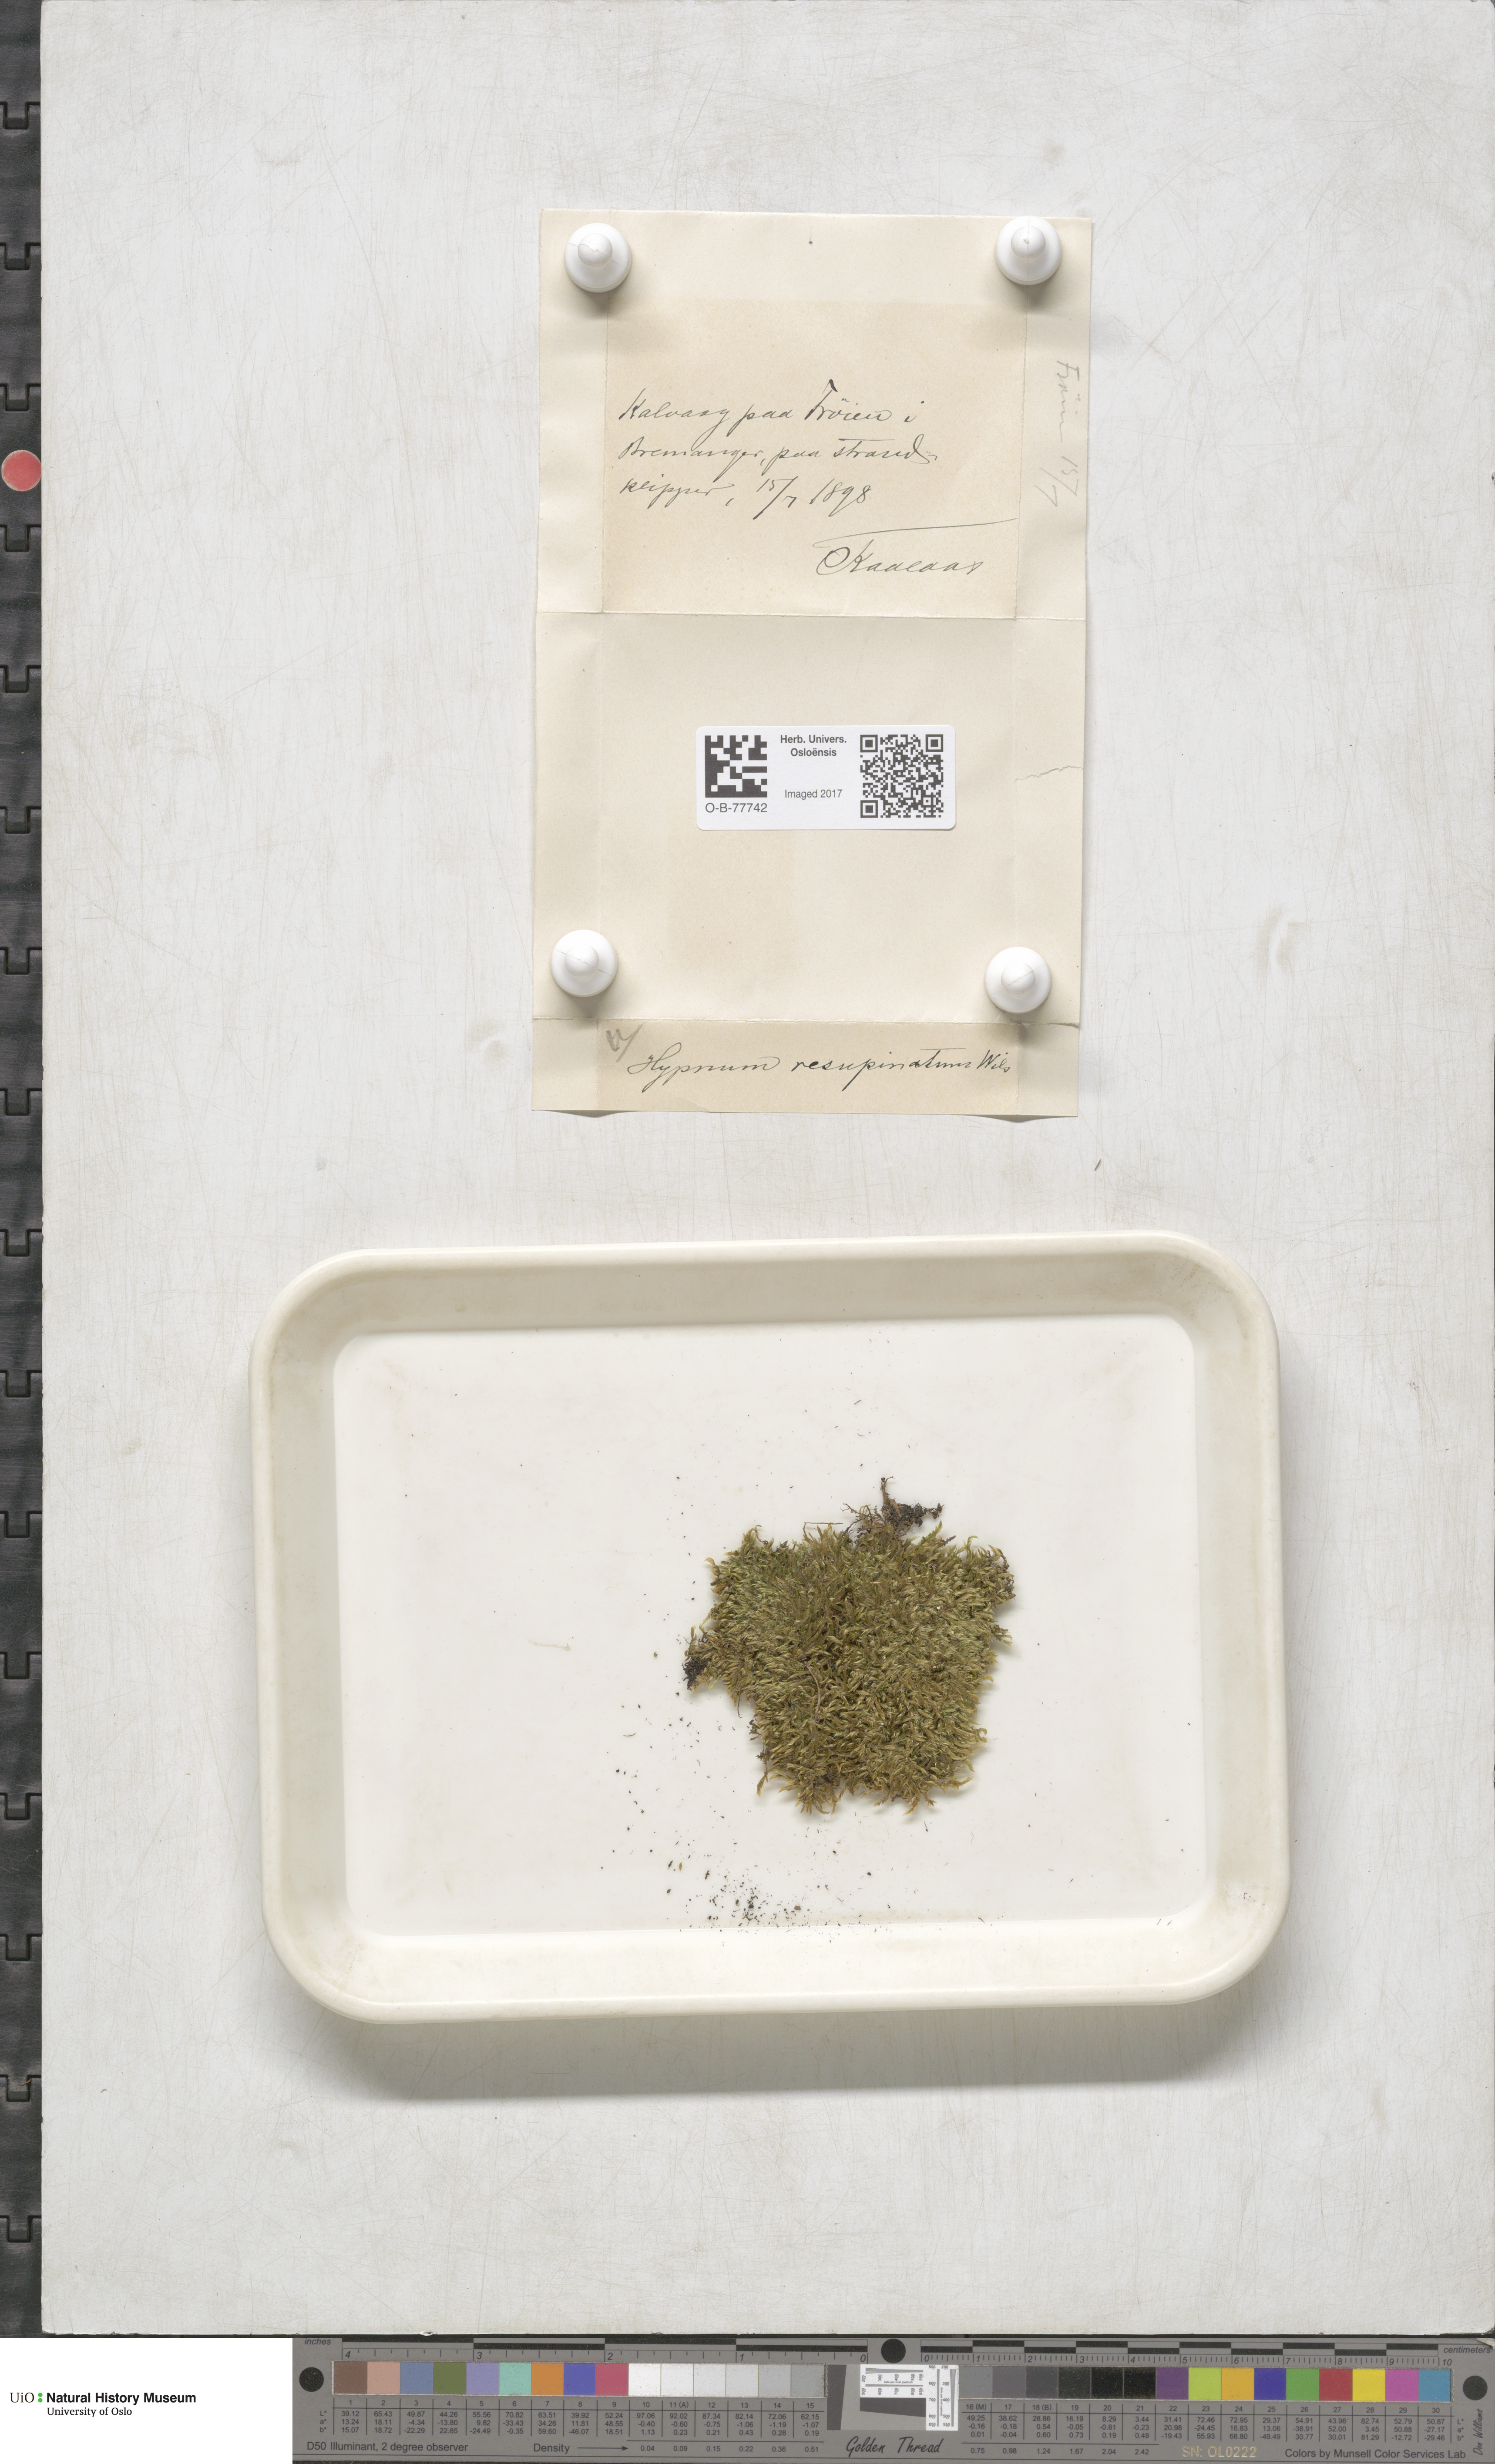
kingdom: Plantae
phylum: Bryophyta
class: Bryopsida
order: Hypnales
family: Hypnaceae
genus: Hypnum
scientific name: Hypnum resupinatum
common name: Supine plait-moss
